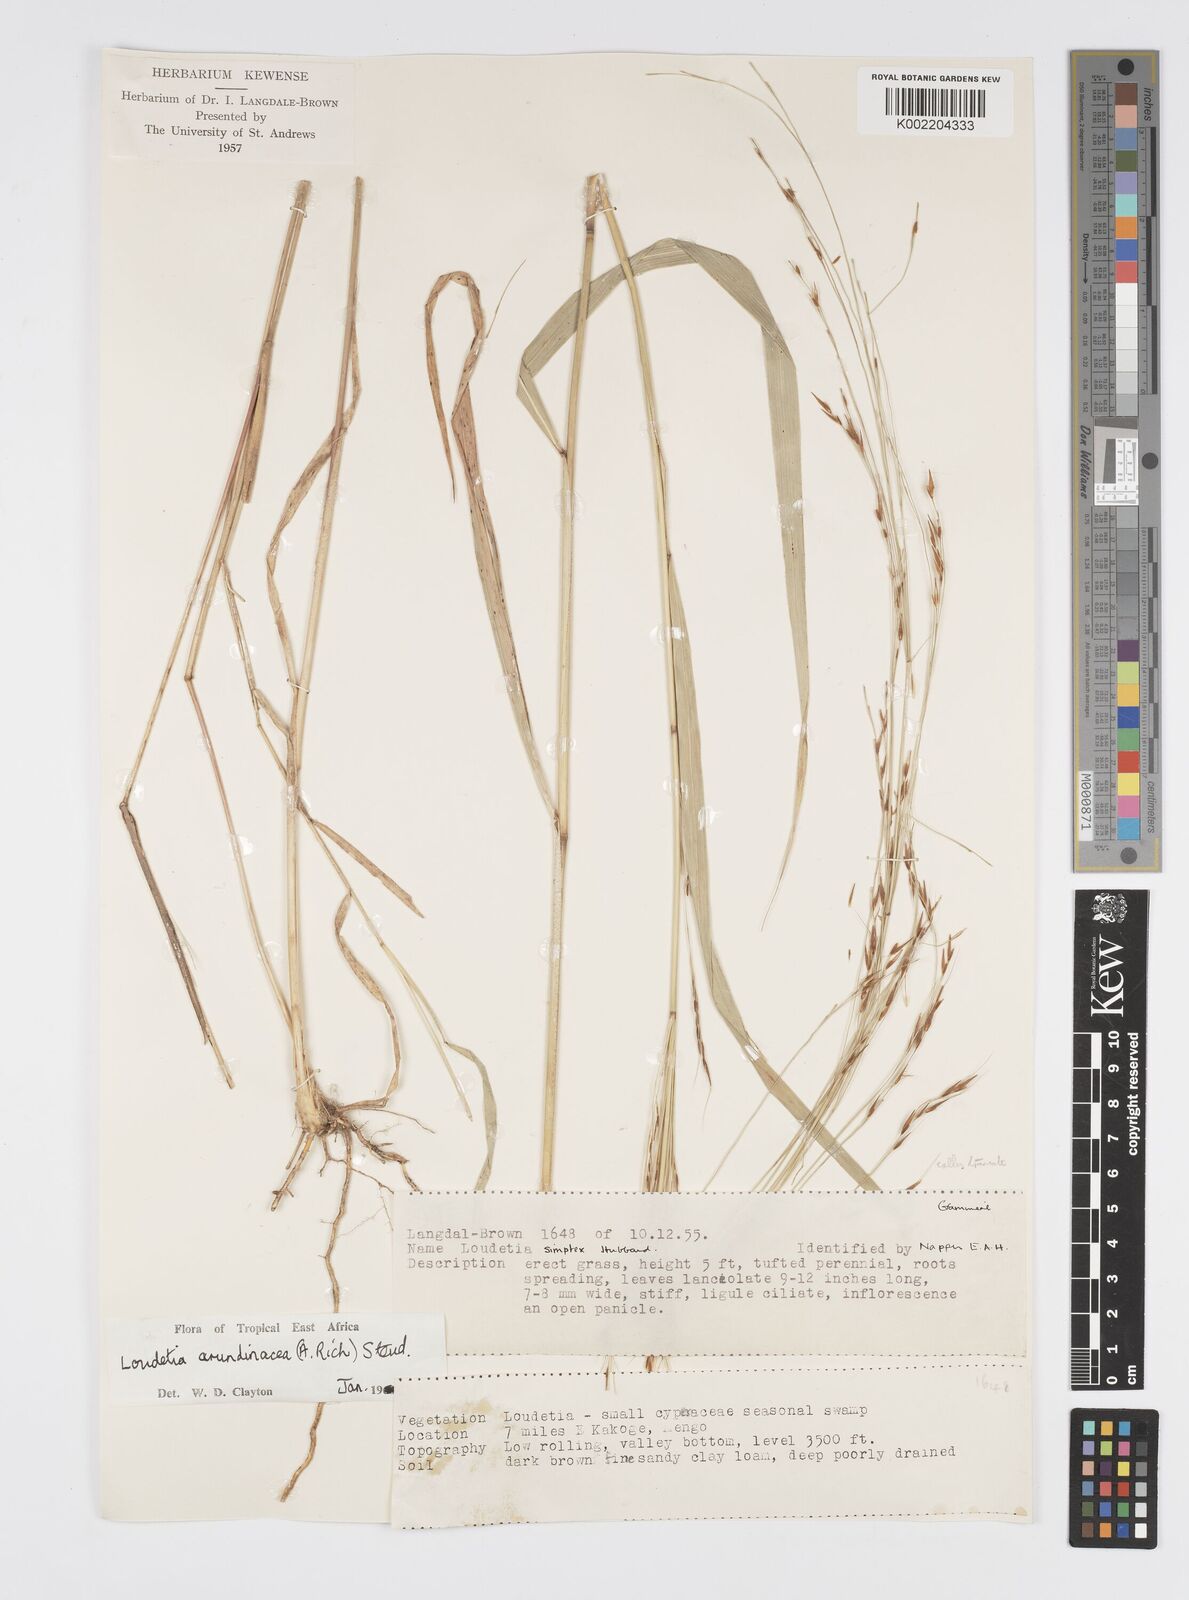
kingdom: Plantae
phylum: Tracheophyta
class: Liliopsida
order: Poales
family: Poaceae
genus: Loudetia
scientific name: Loudetia arundinacea
